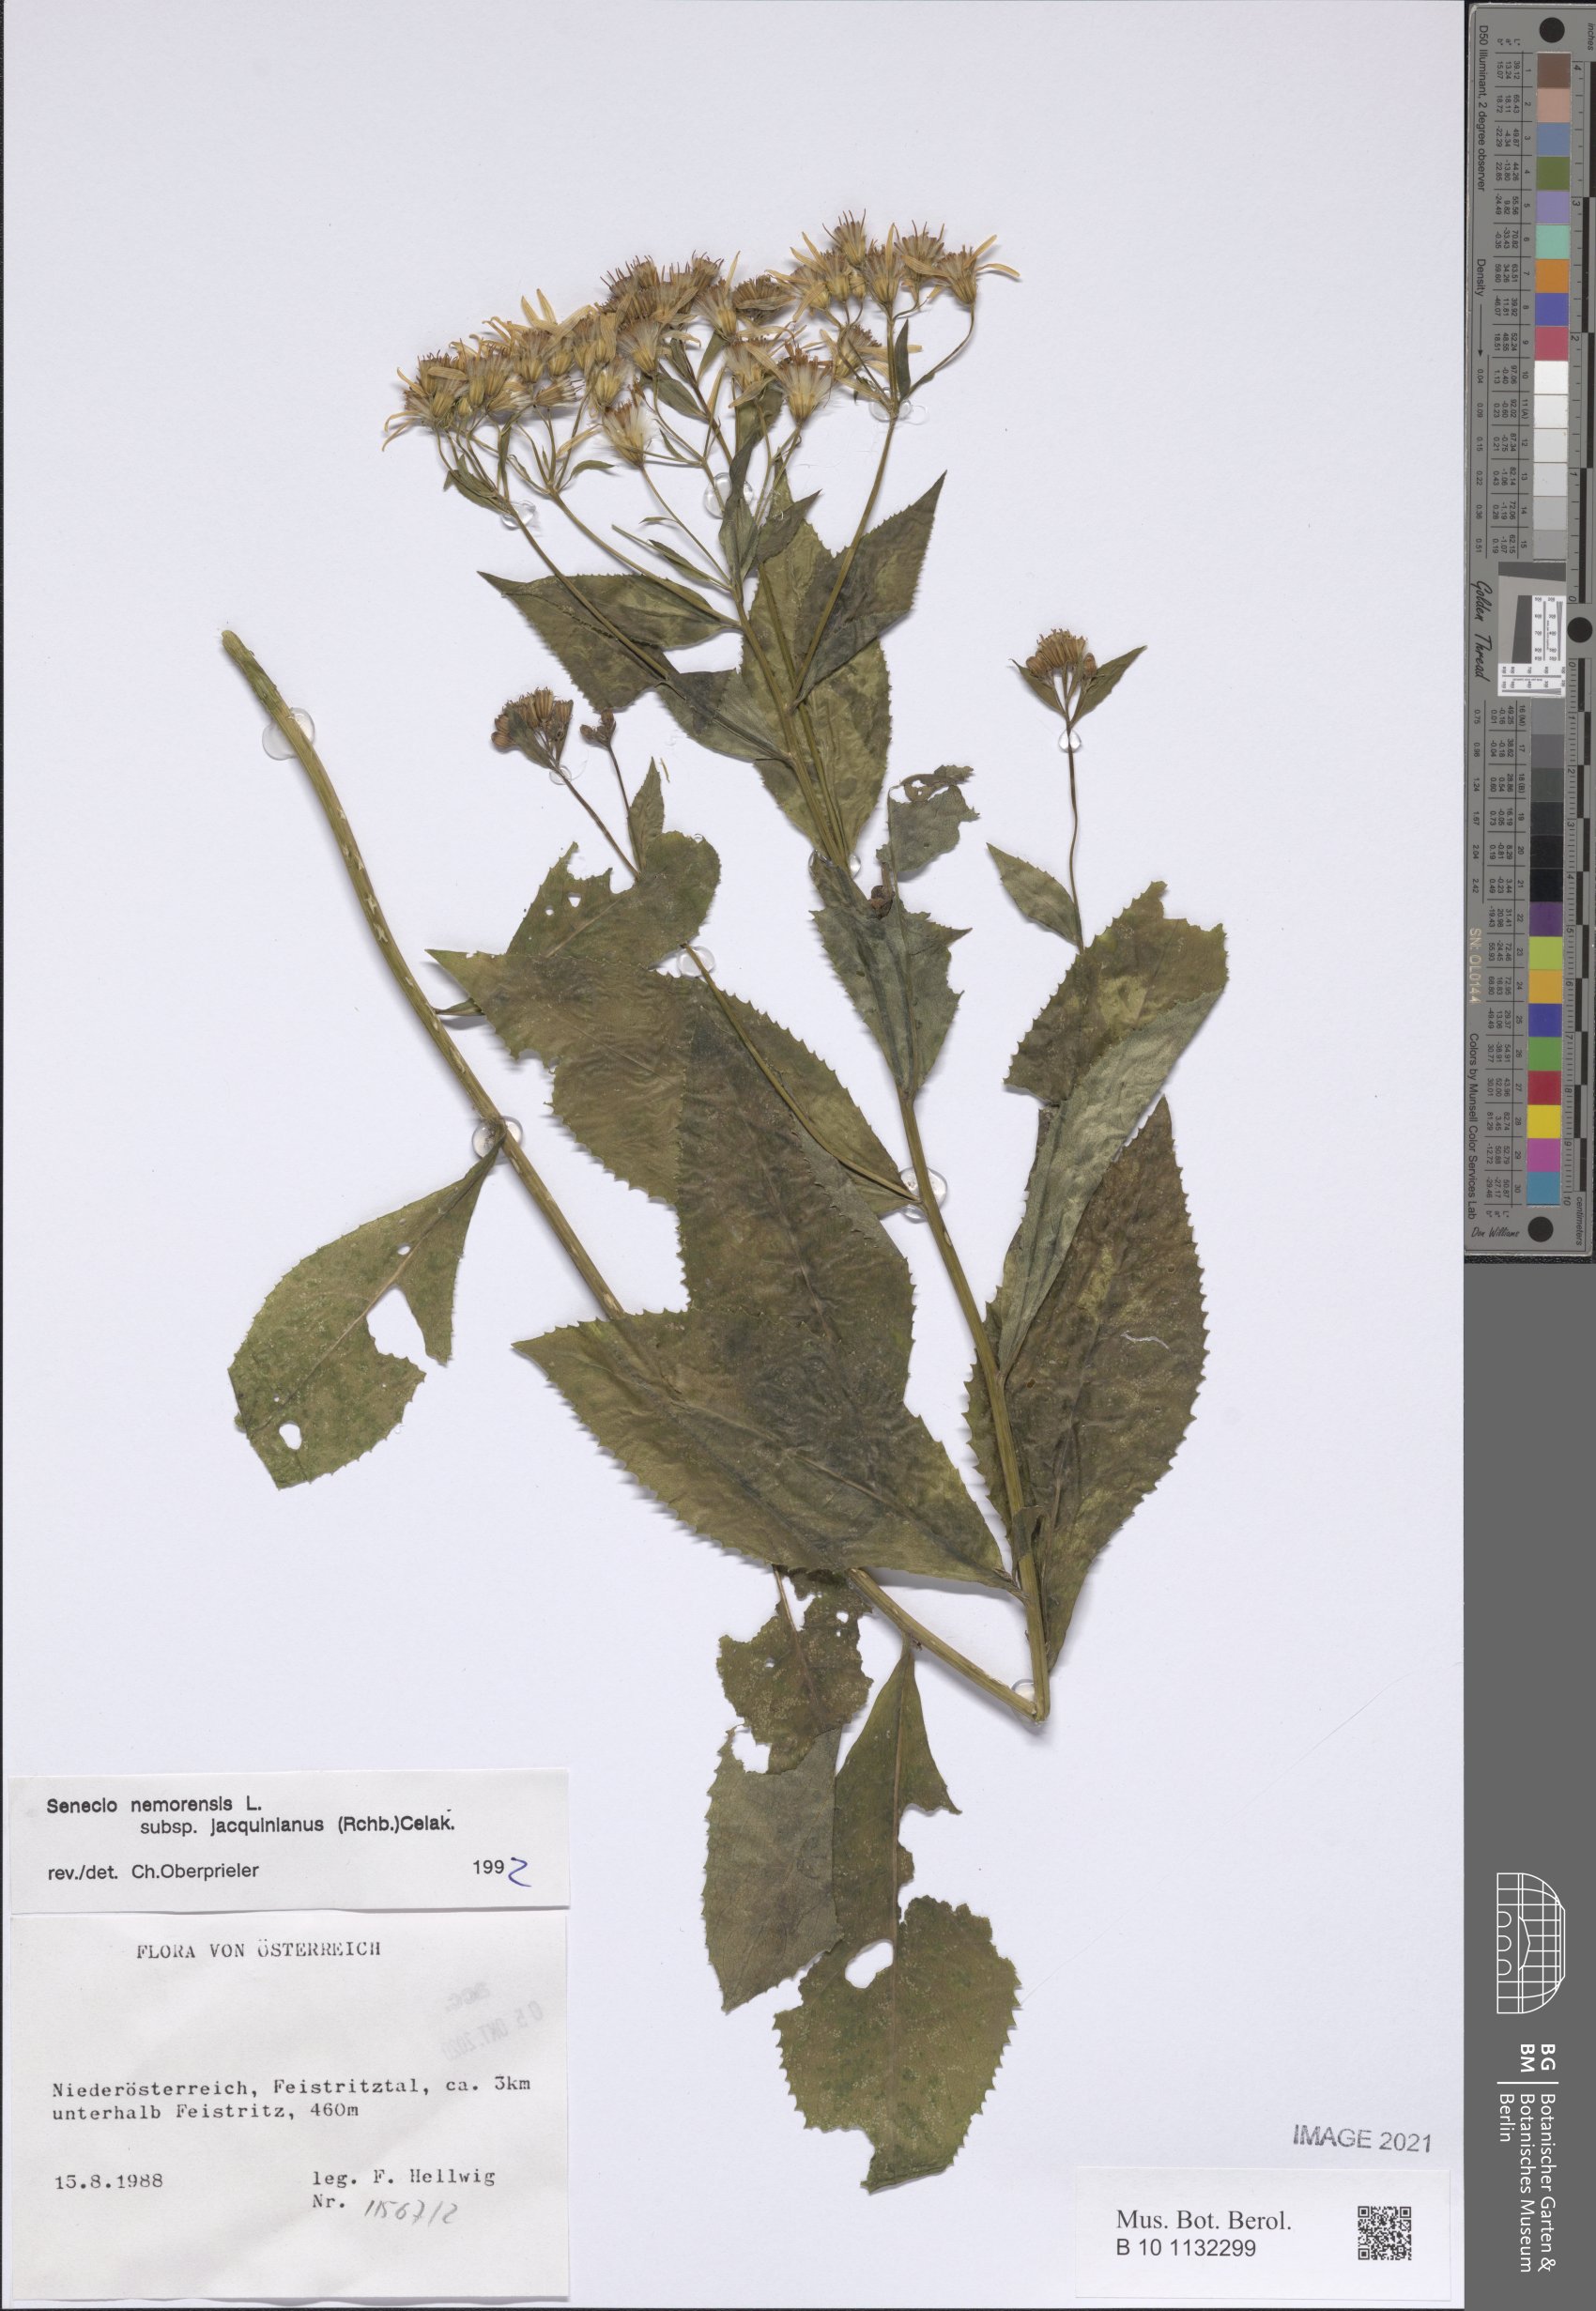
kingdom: Plantae
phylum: Tracheophyta
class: Magnoliopsida
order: Asterales
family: Asteraceae
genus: Senecio
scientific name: Senecio germanicus
